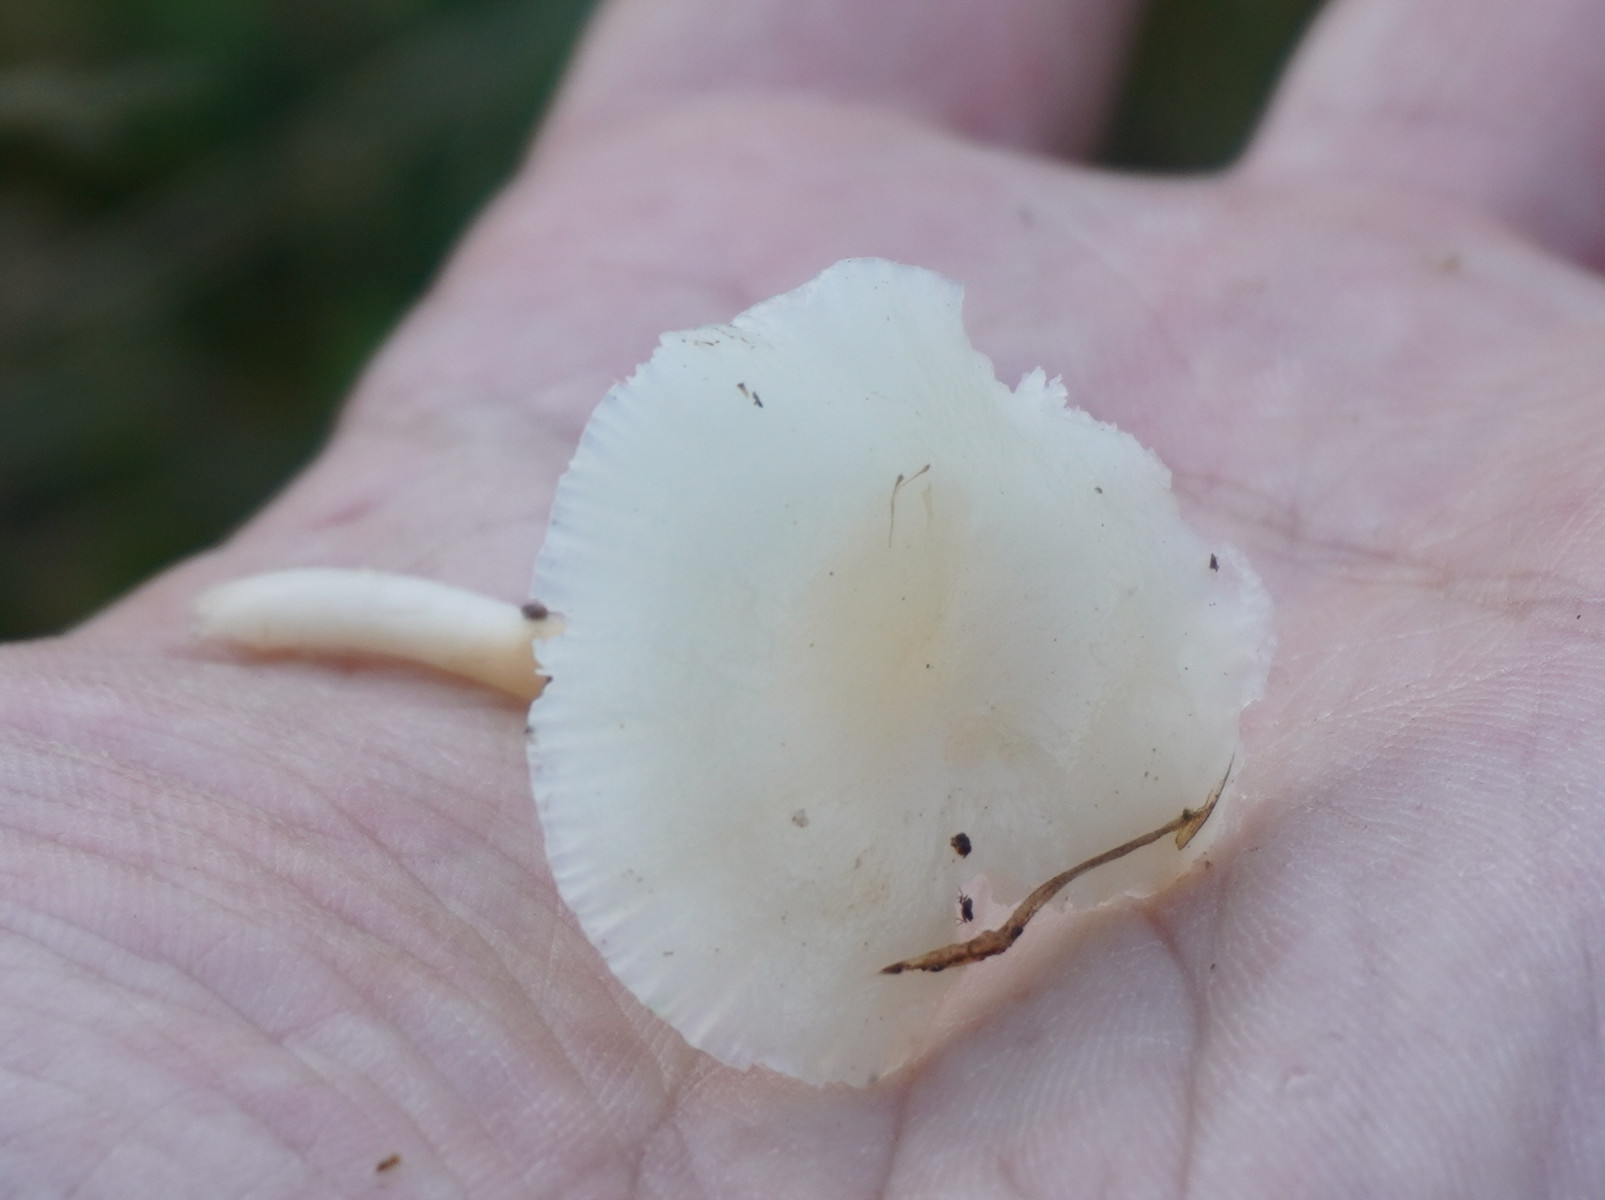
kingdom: Fungi
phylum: Basidiomycota
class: Agaricomycetes
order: Agaricales
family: Hygrophoraceae
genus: Cuphophyllus
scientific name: Cuphophyllus
